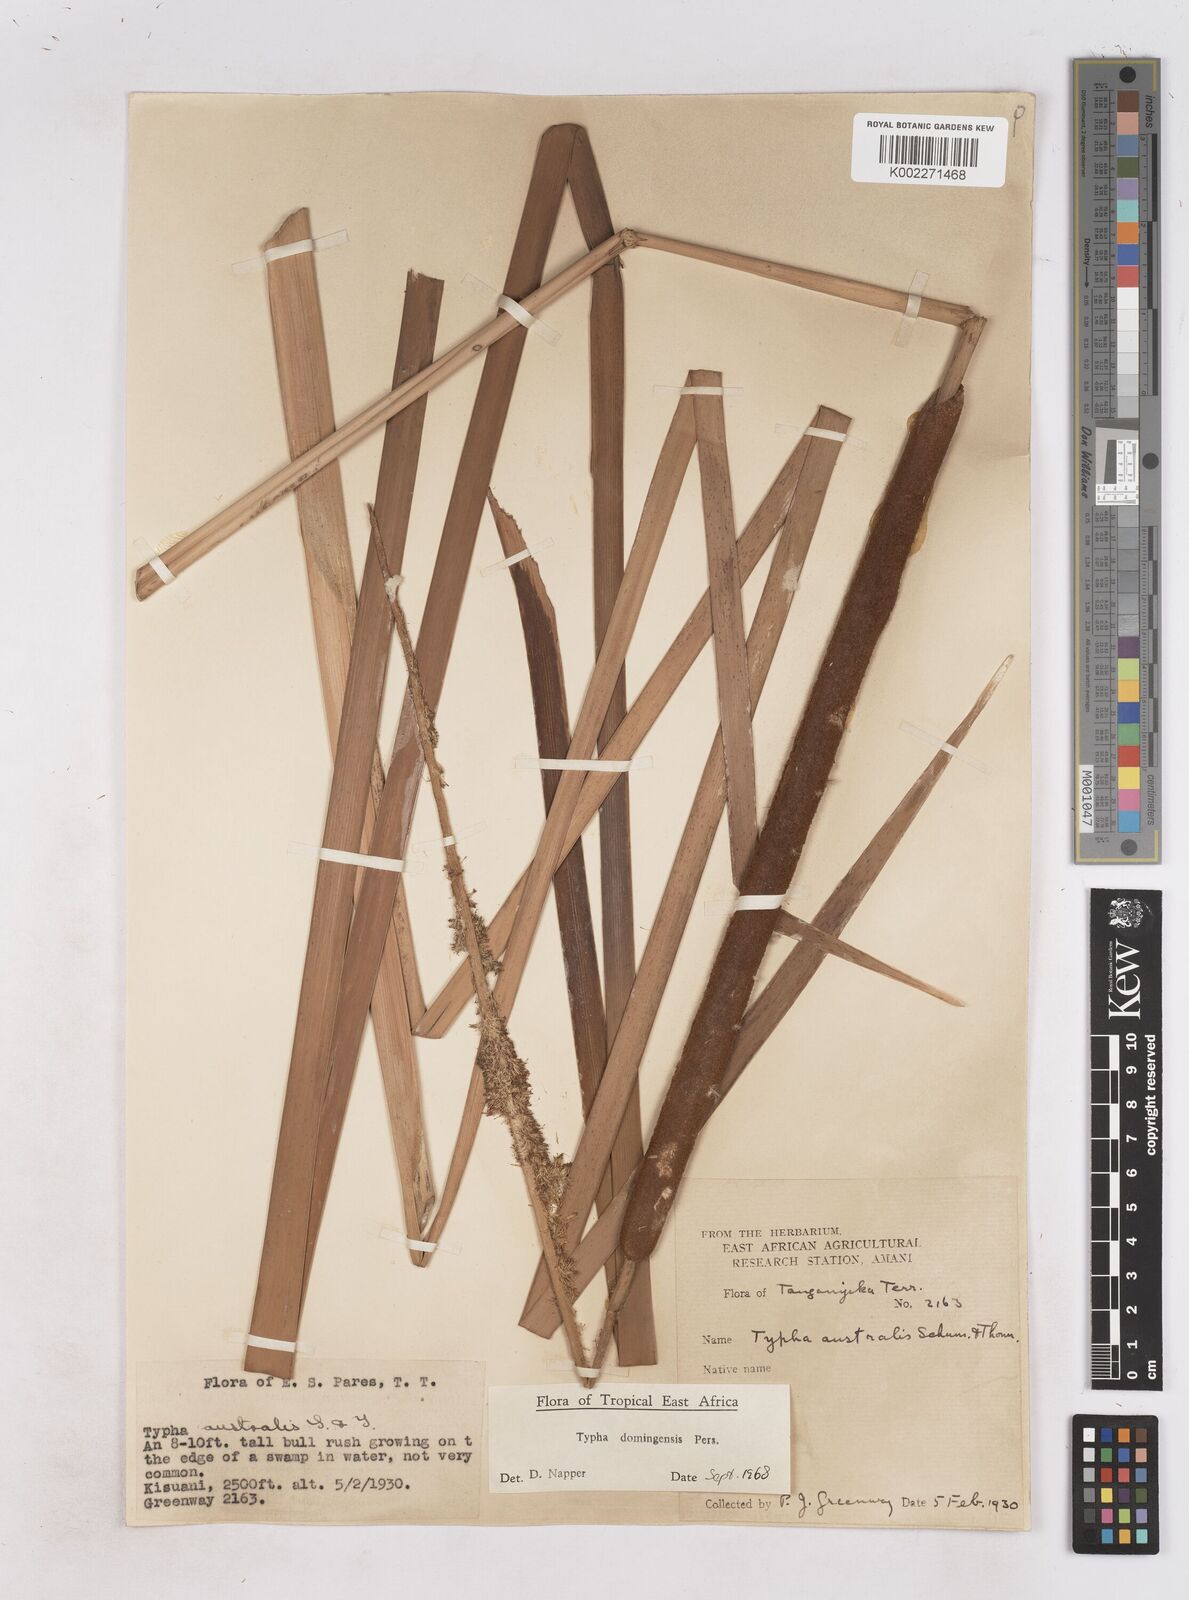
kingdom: Plantae
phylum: Tracheophyta
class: Liliopsida
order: Poales
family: Typhaceae
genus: Typha
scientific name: Typha domingensis
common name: Southern cattail
